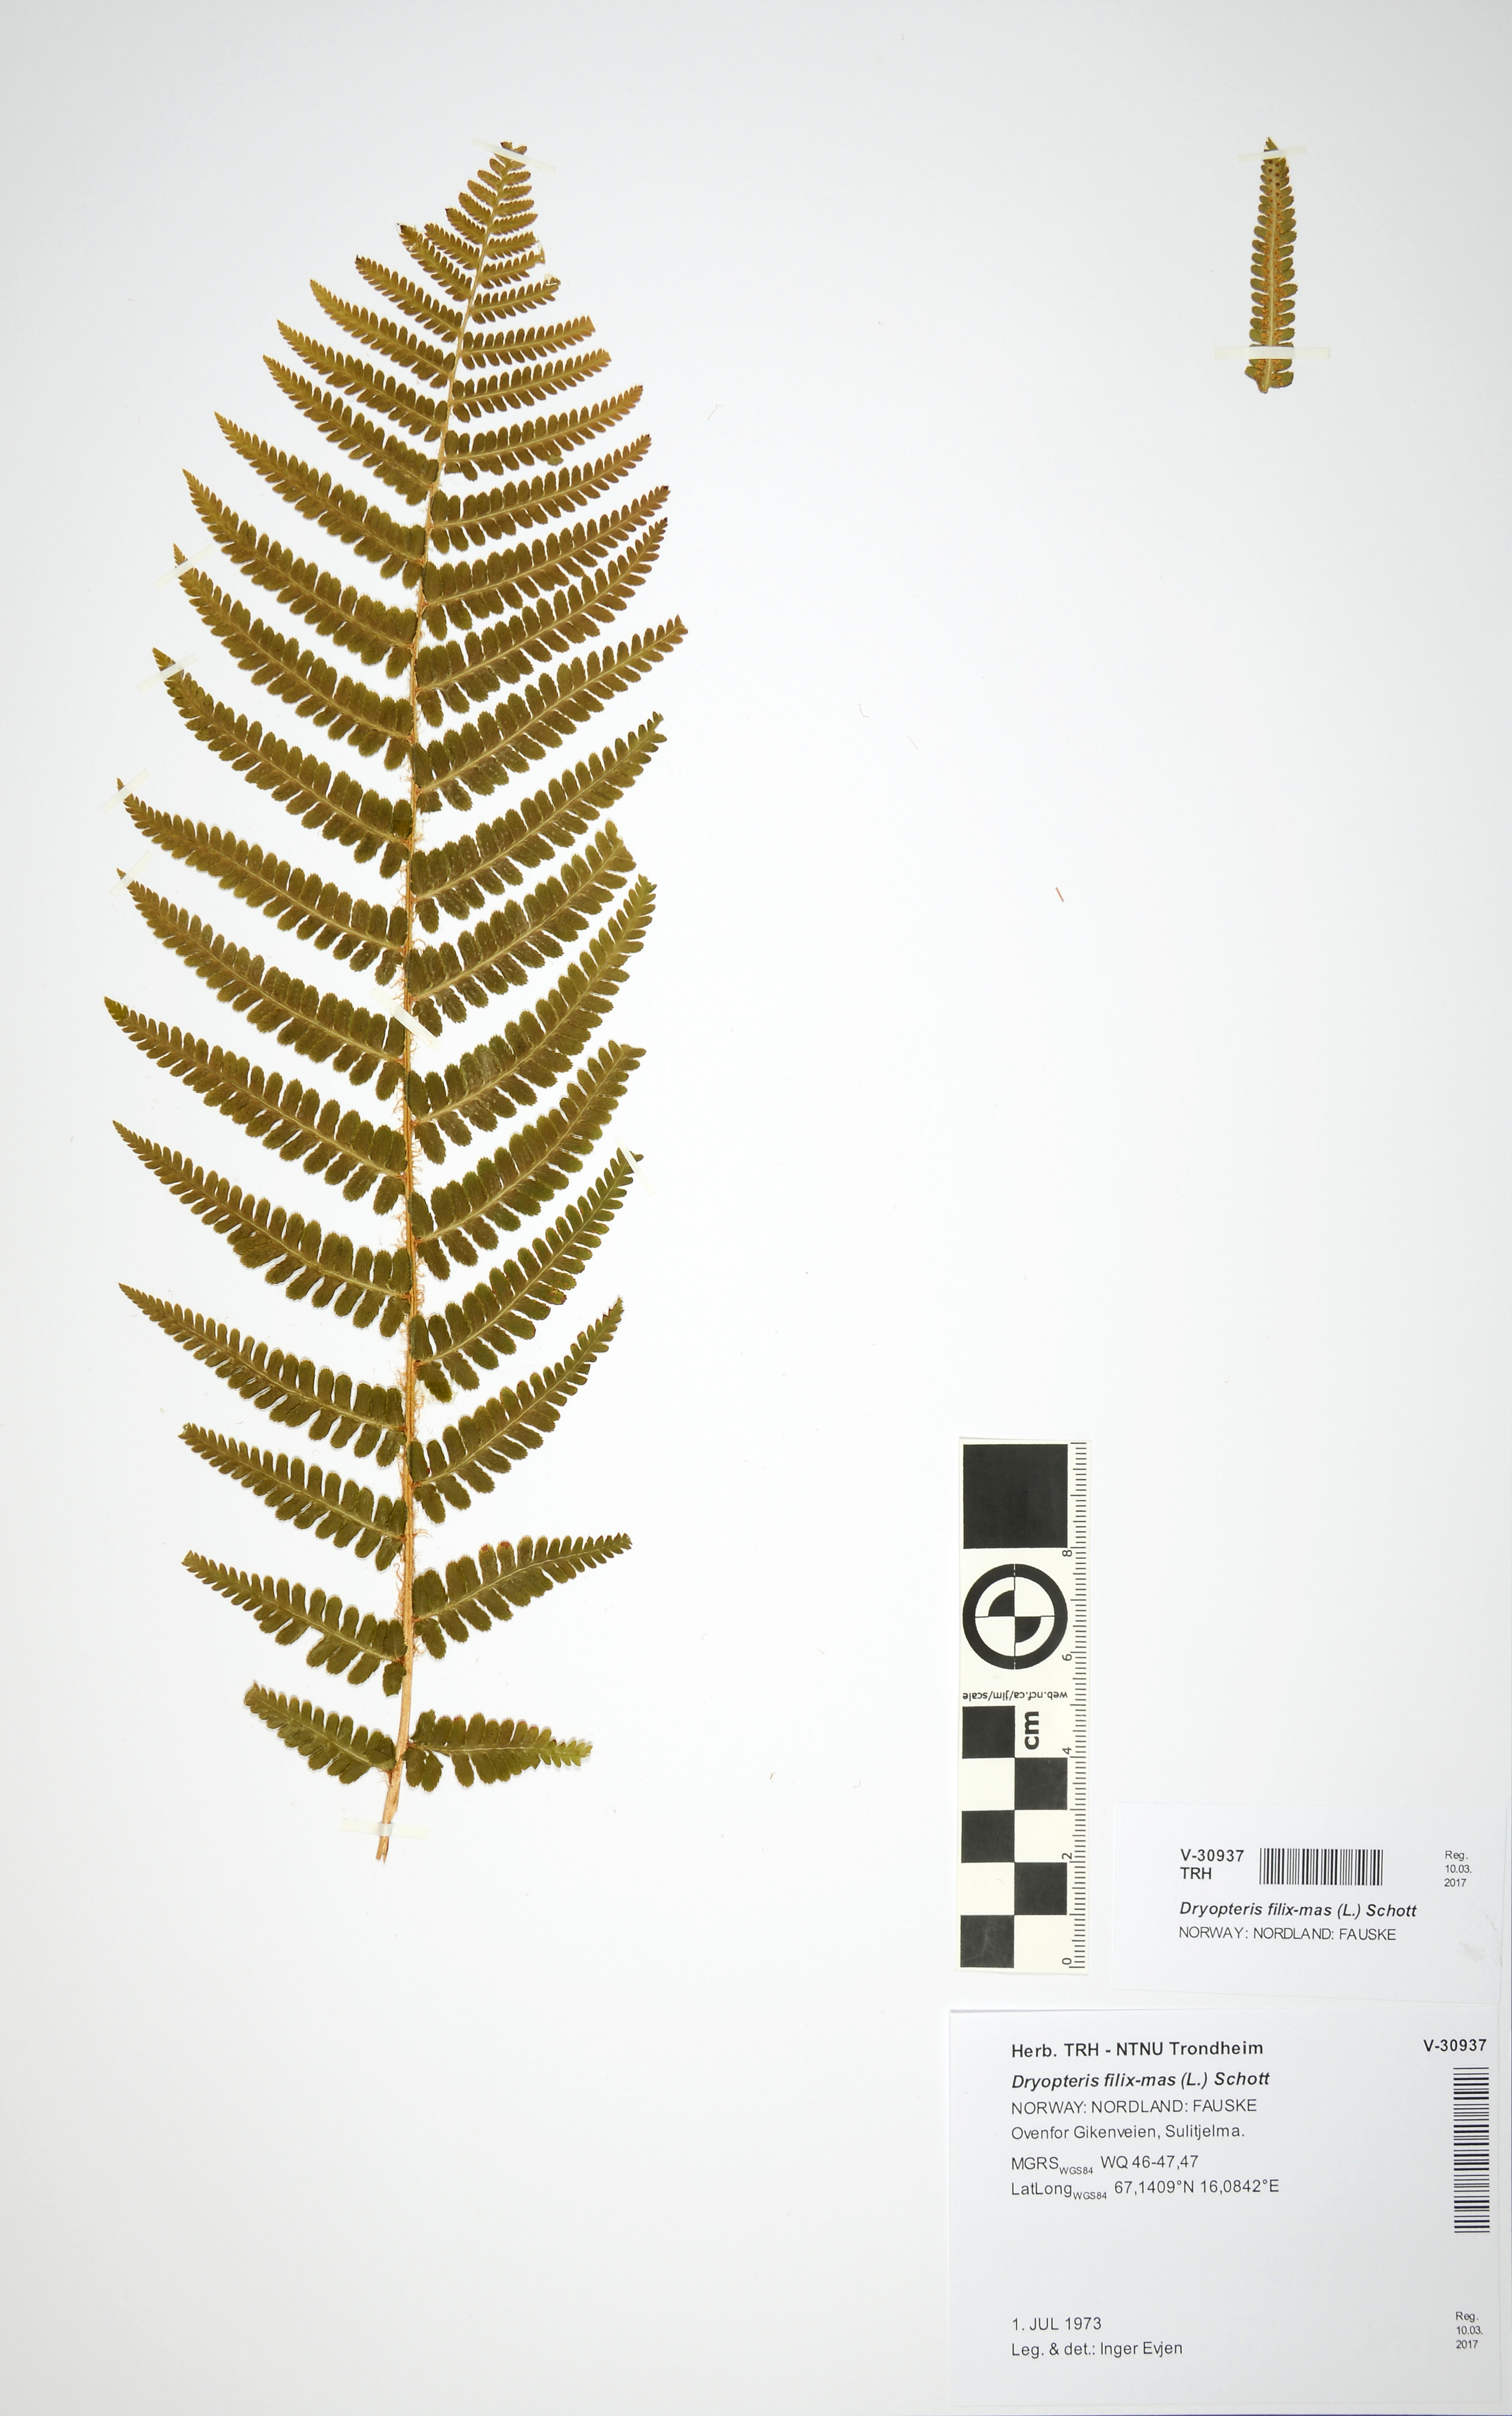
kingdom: Plantae
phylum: Tracheophyta
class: Polypodiopsida
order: Polypodiales
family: Dryopteridaceae
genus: Dryopteris
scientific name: Dryopteris filix-mas
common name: Male fern
